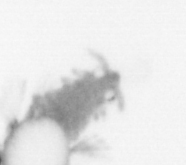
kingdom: Animalia
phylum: Arthropoda
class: Copepoda
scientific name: Copepoda
